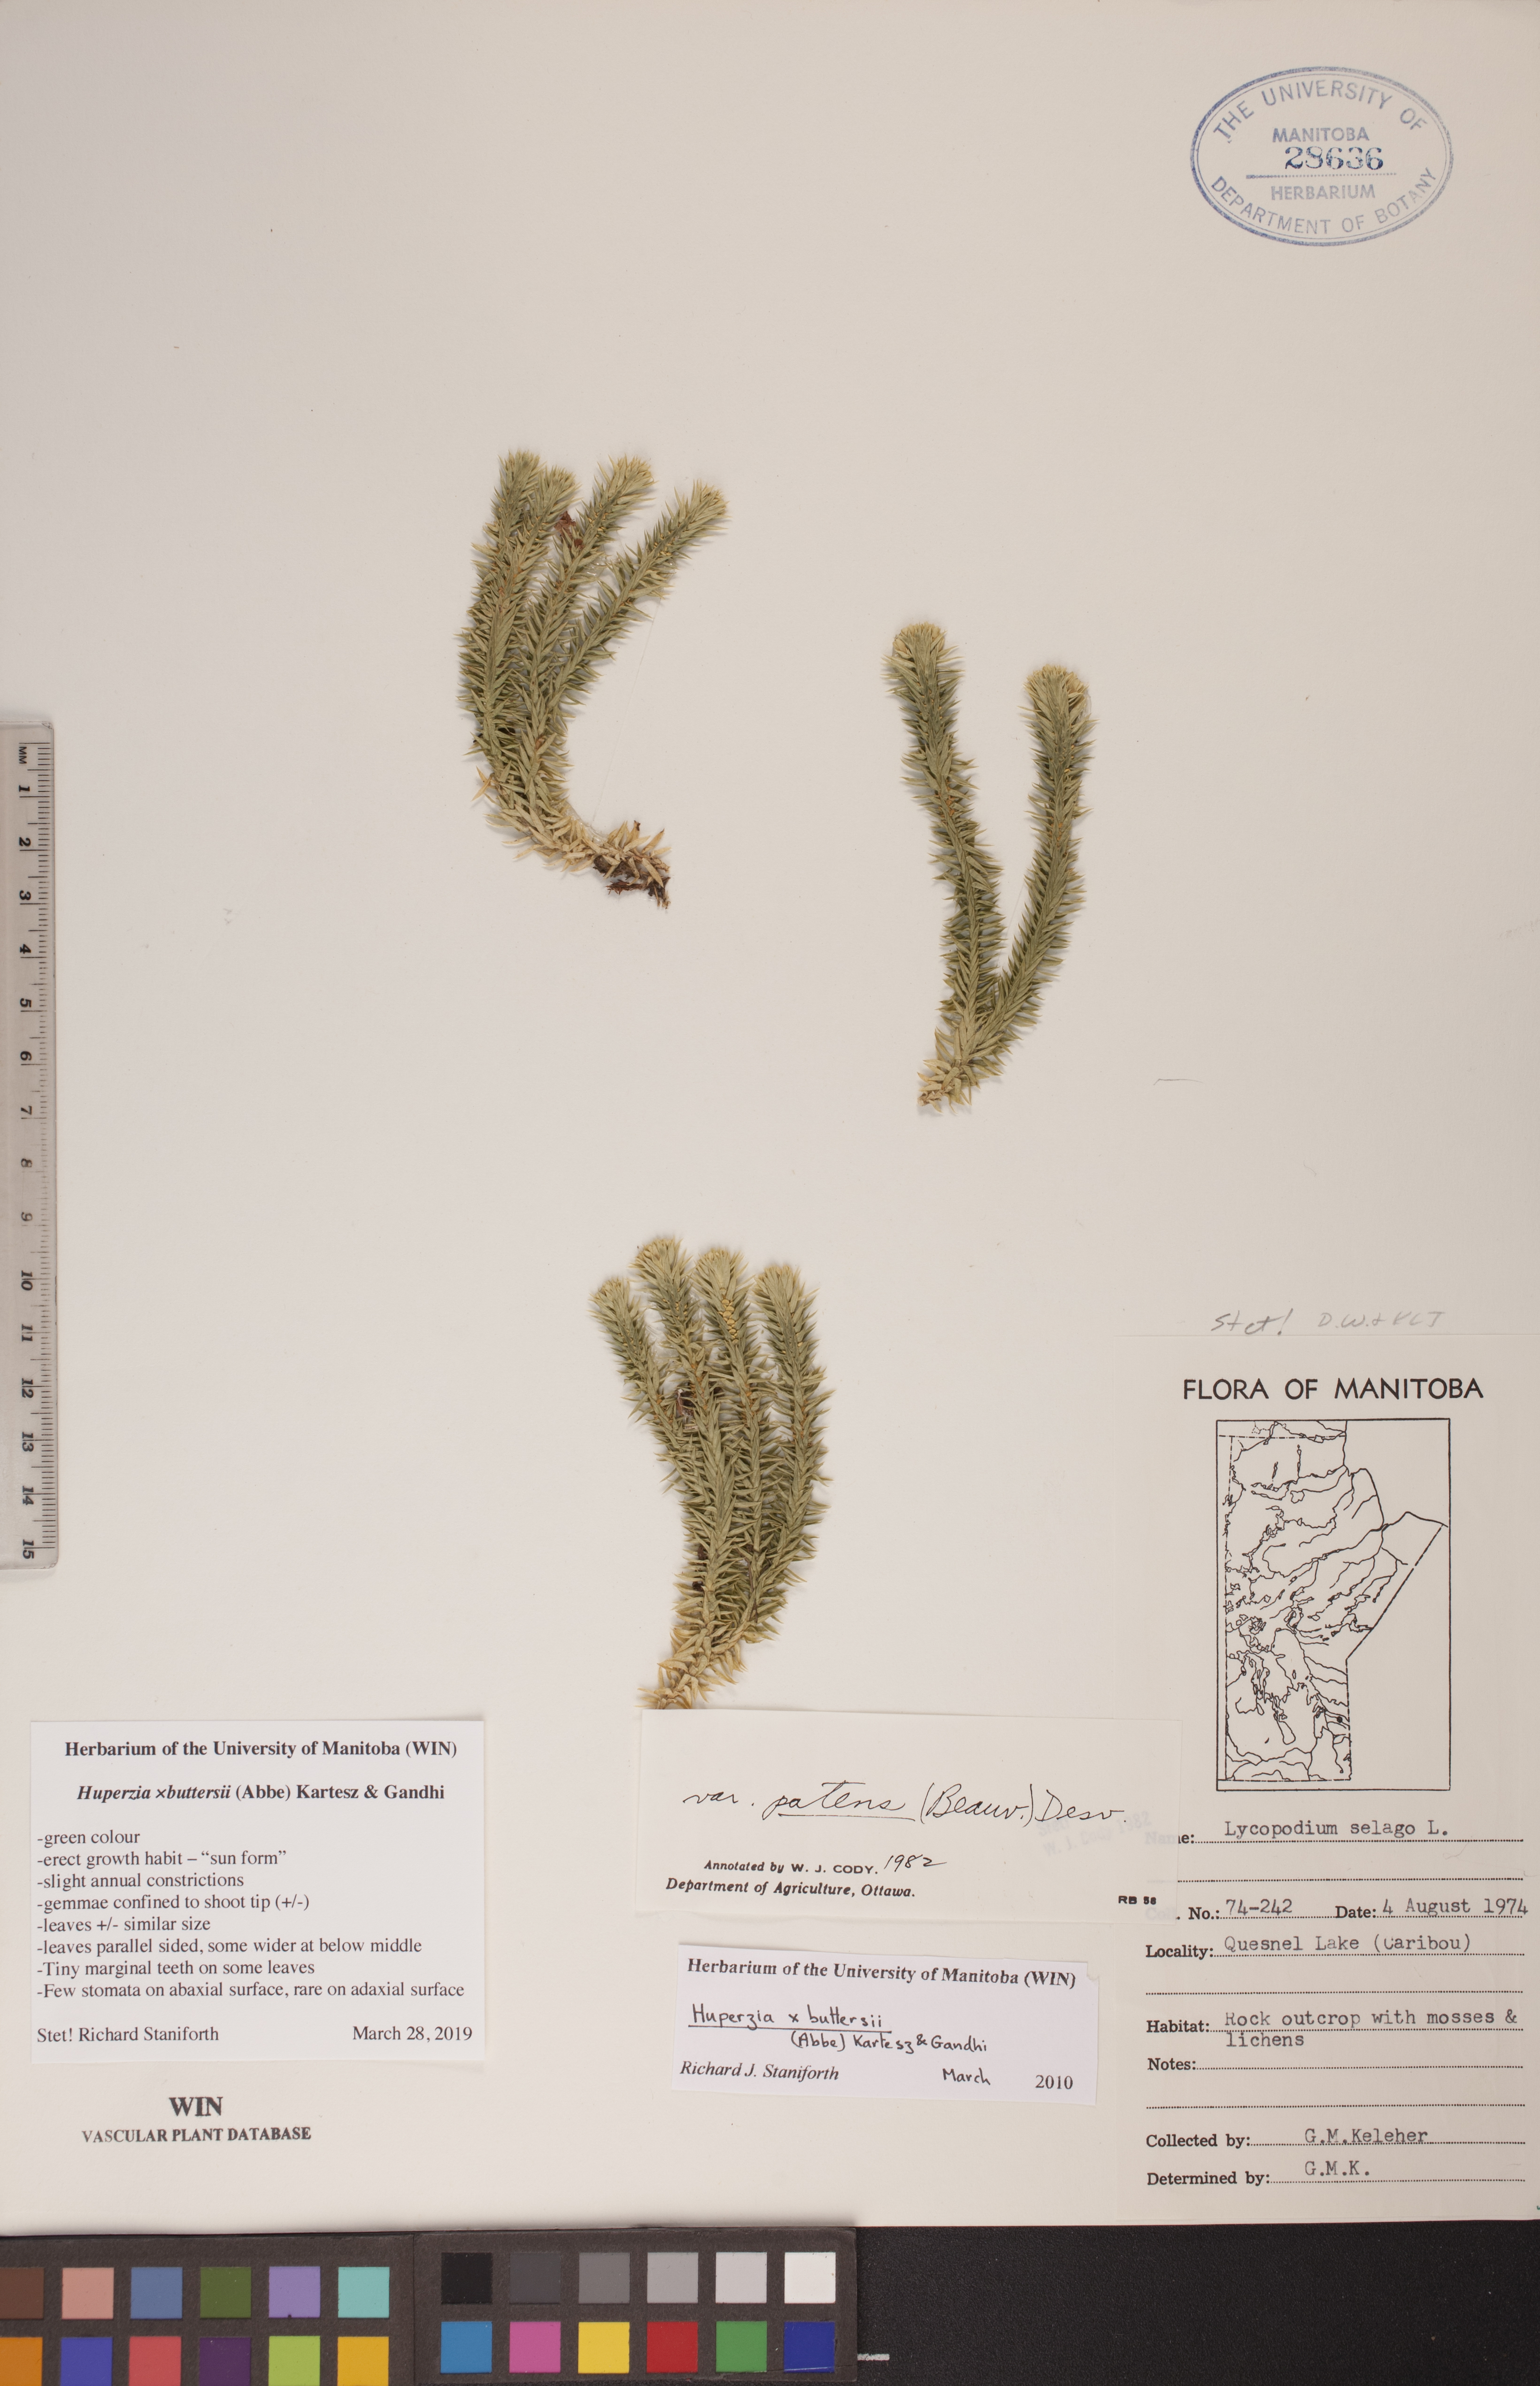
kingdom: Plantae
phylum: Tracheophyta
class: Lycopodiopsida
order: Lycopodiales
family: Lycopodiaceae
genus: Huperzia
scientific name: Huperzia buttersii
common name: Butters' clubmoss
